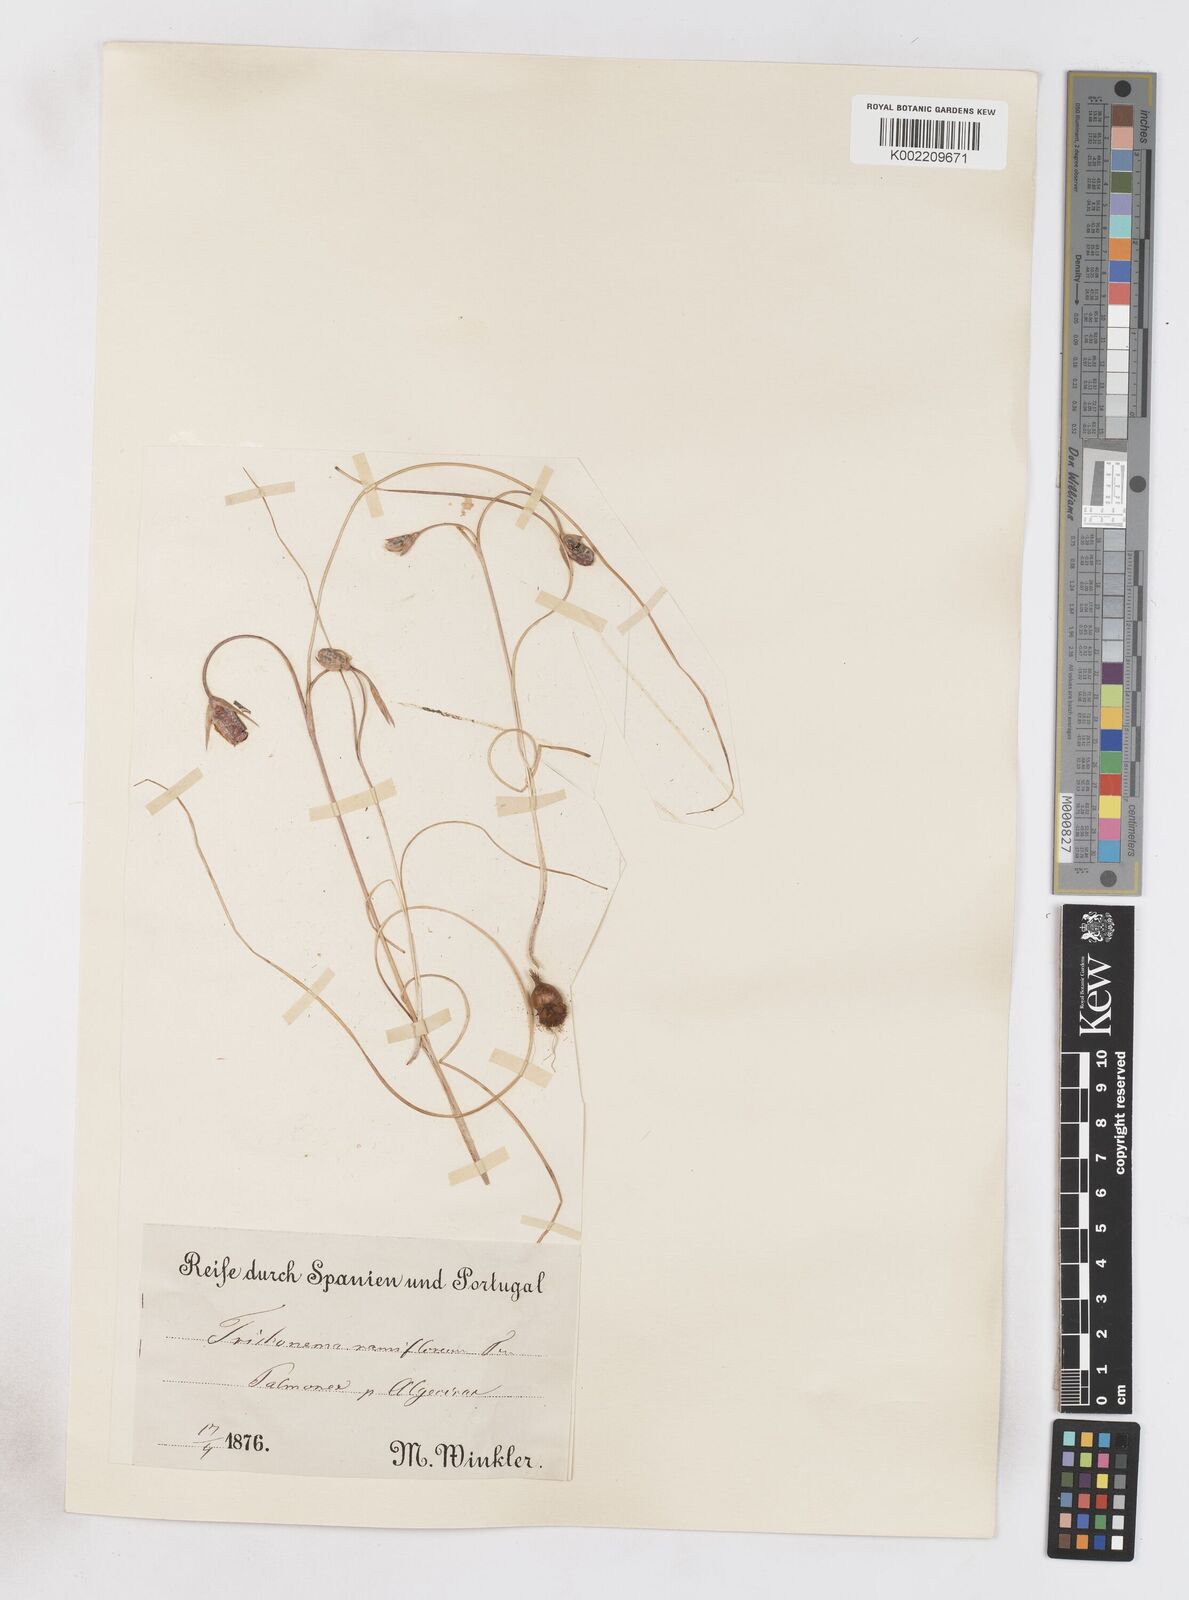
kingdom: Plantae
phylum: Tracheophyta
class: Liliopsida
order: Asparagales
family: Iridaceae
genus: Romulea
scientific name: Romulea ramiflora
